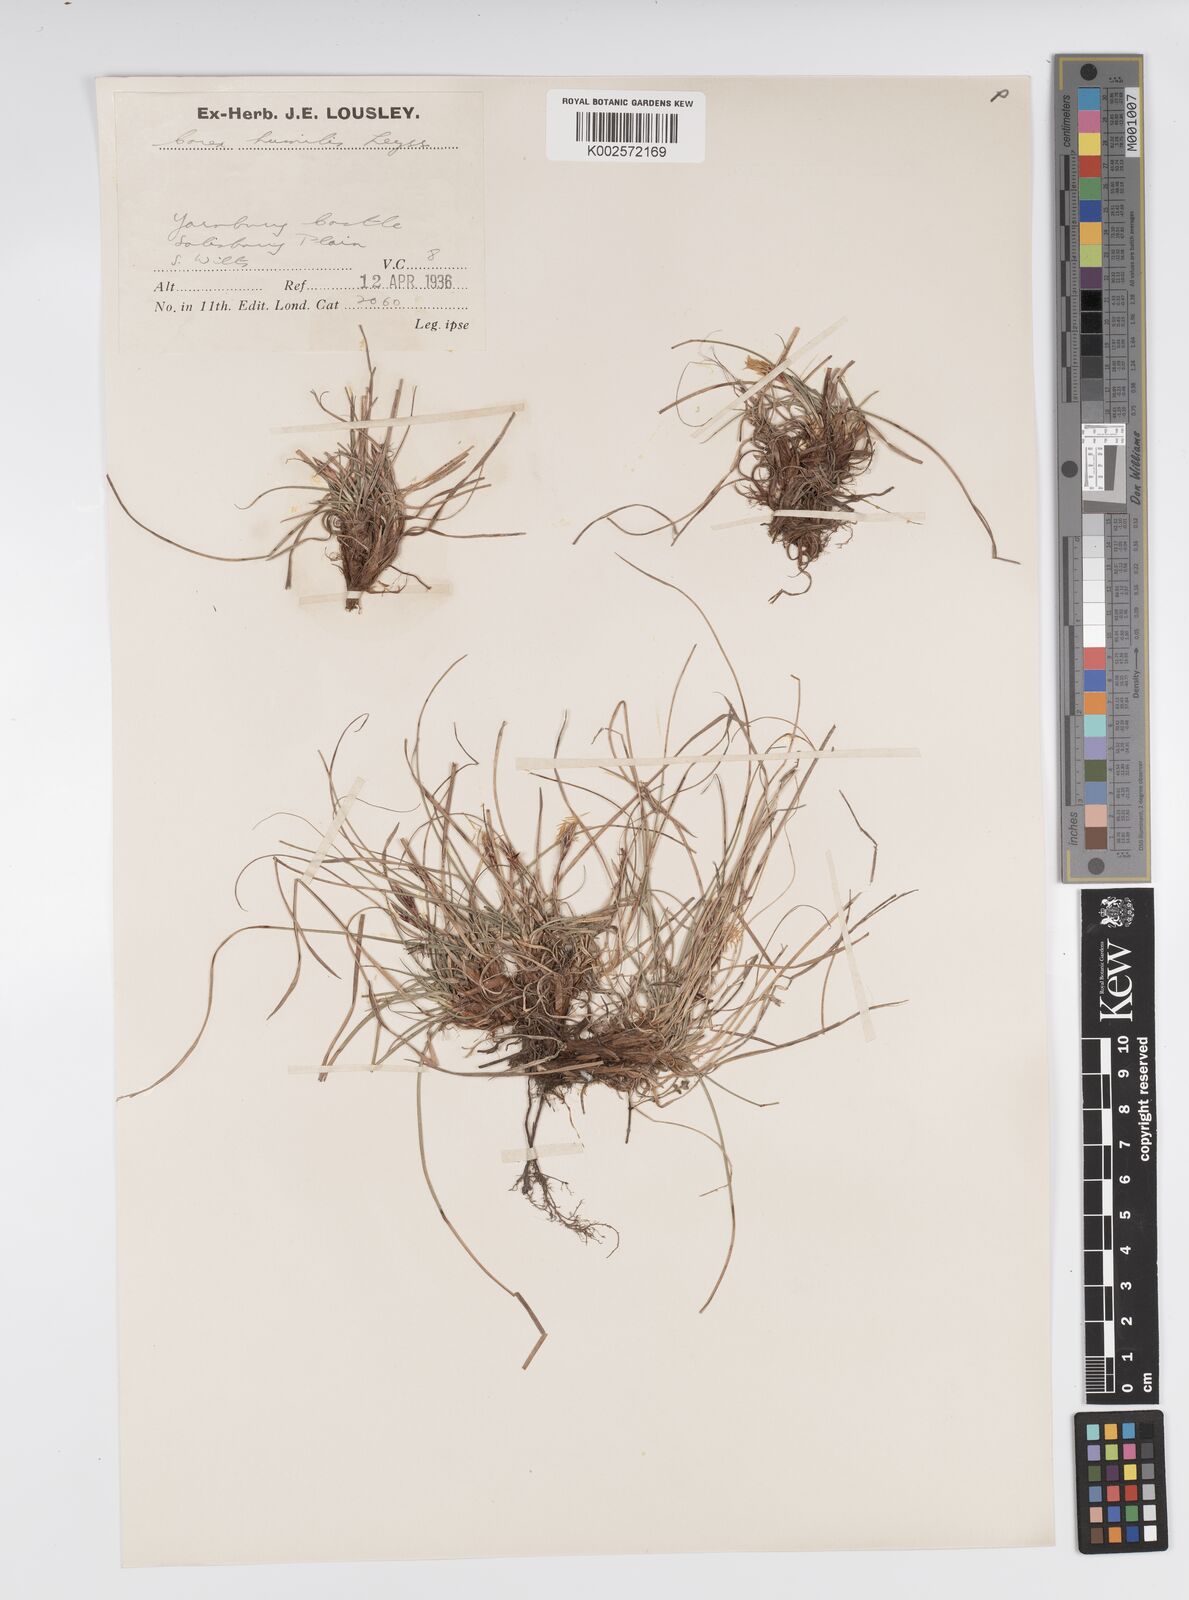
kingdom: Plantae
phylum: Tracheophyta
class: Liliopsida
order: Poales
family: Cyperaceae
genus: Carex
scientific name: Carex humilis
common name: Dwarf sedge
